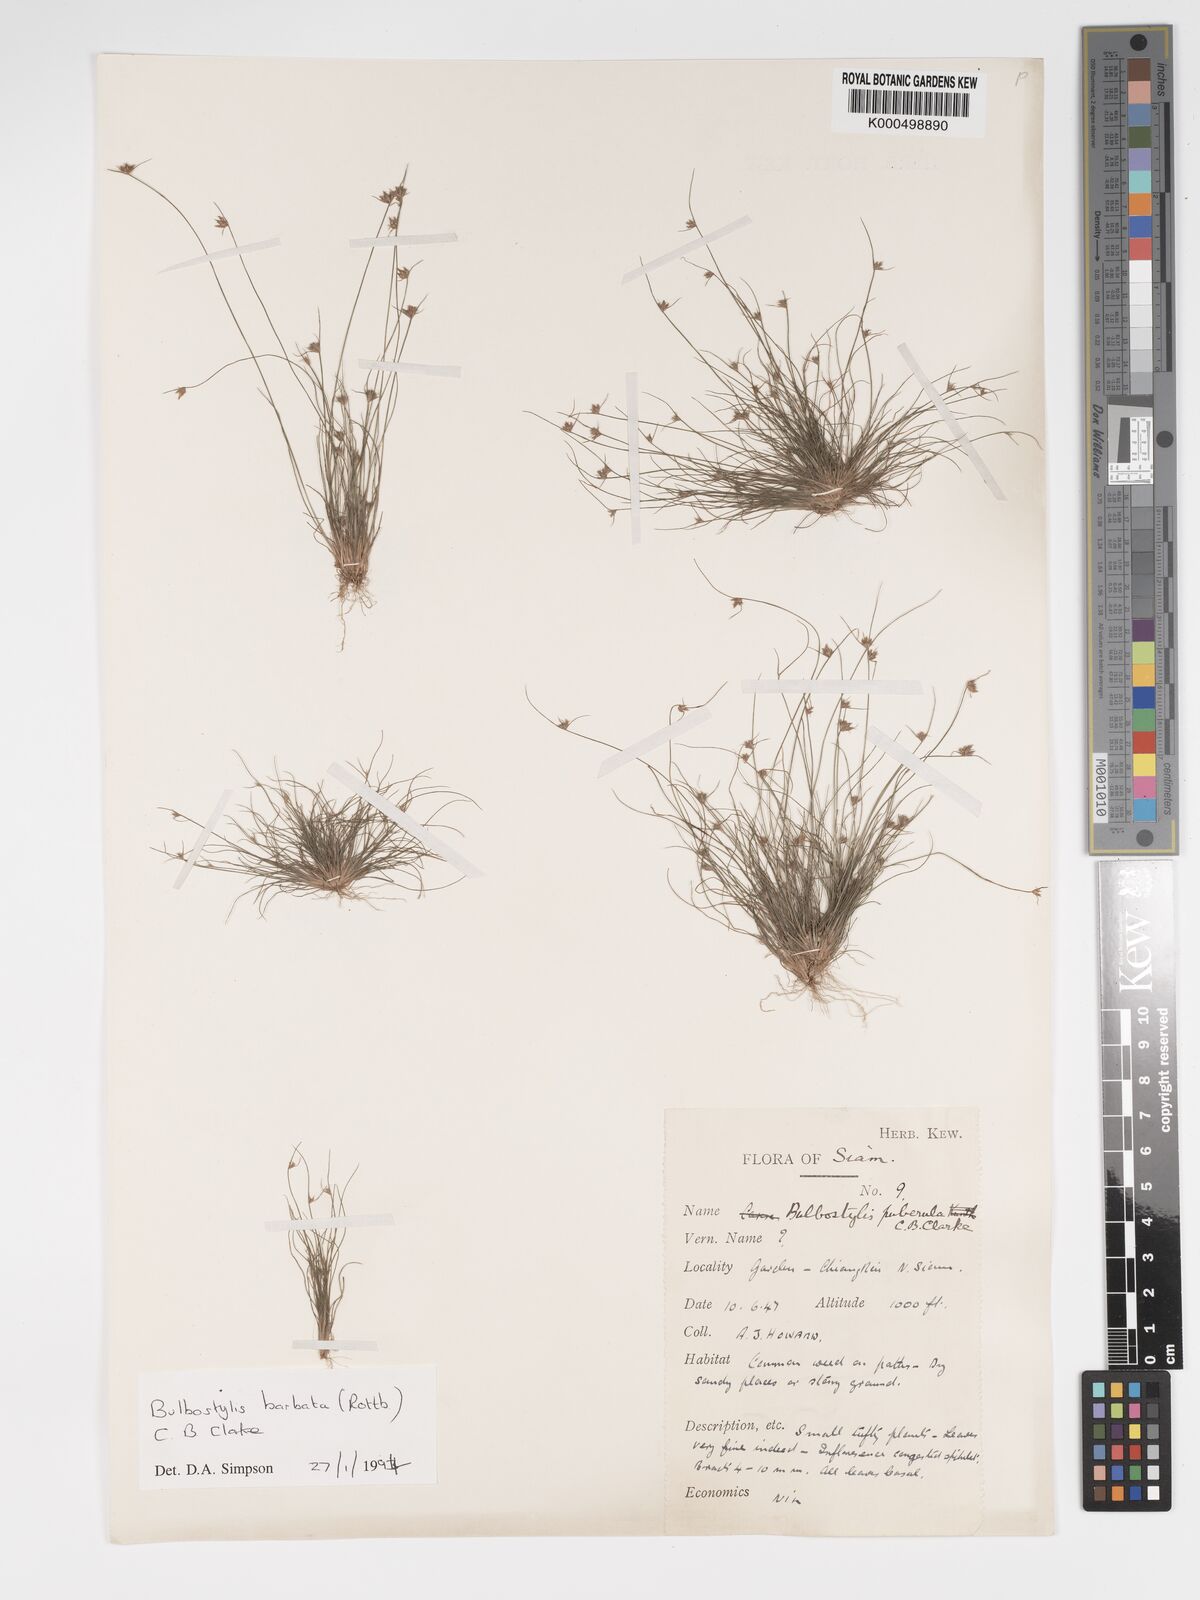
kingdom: Plantae
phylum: Tracheophyta
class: Liliopsida
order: Poales
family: Cyperaceae
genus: Bulbostylis
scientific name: Bulbostylis barbata
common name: Watergrass
